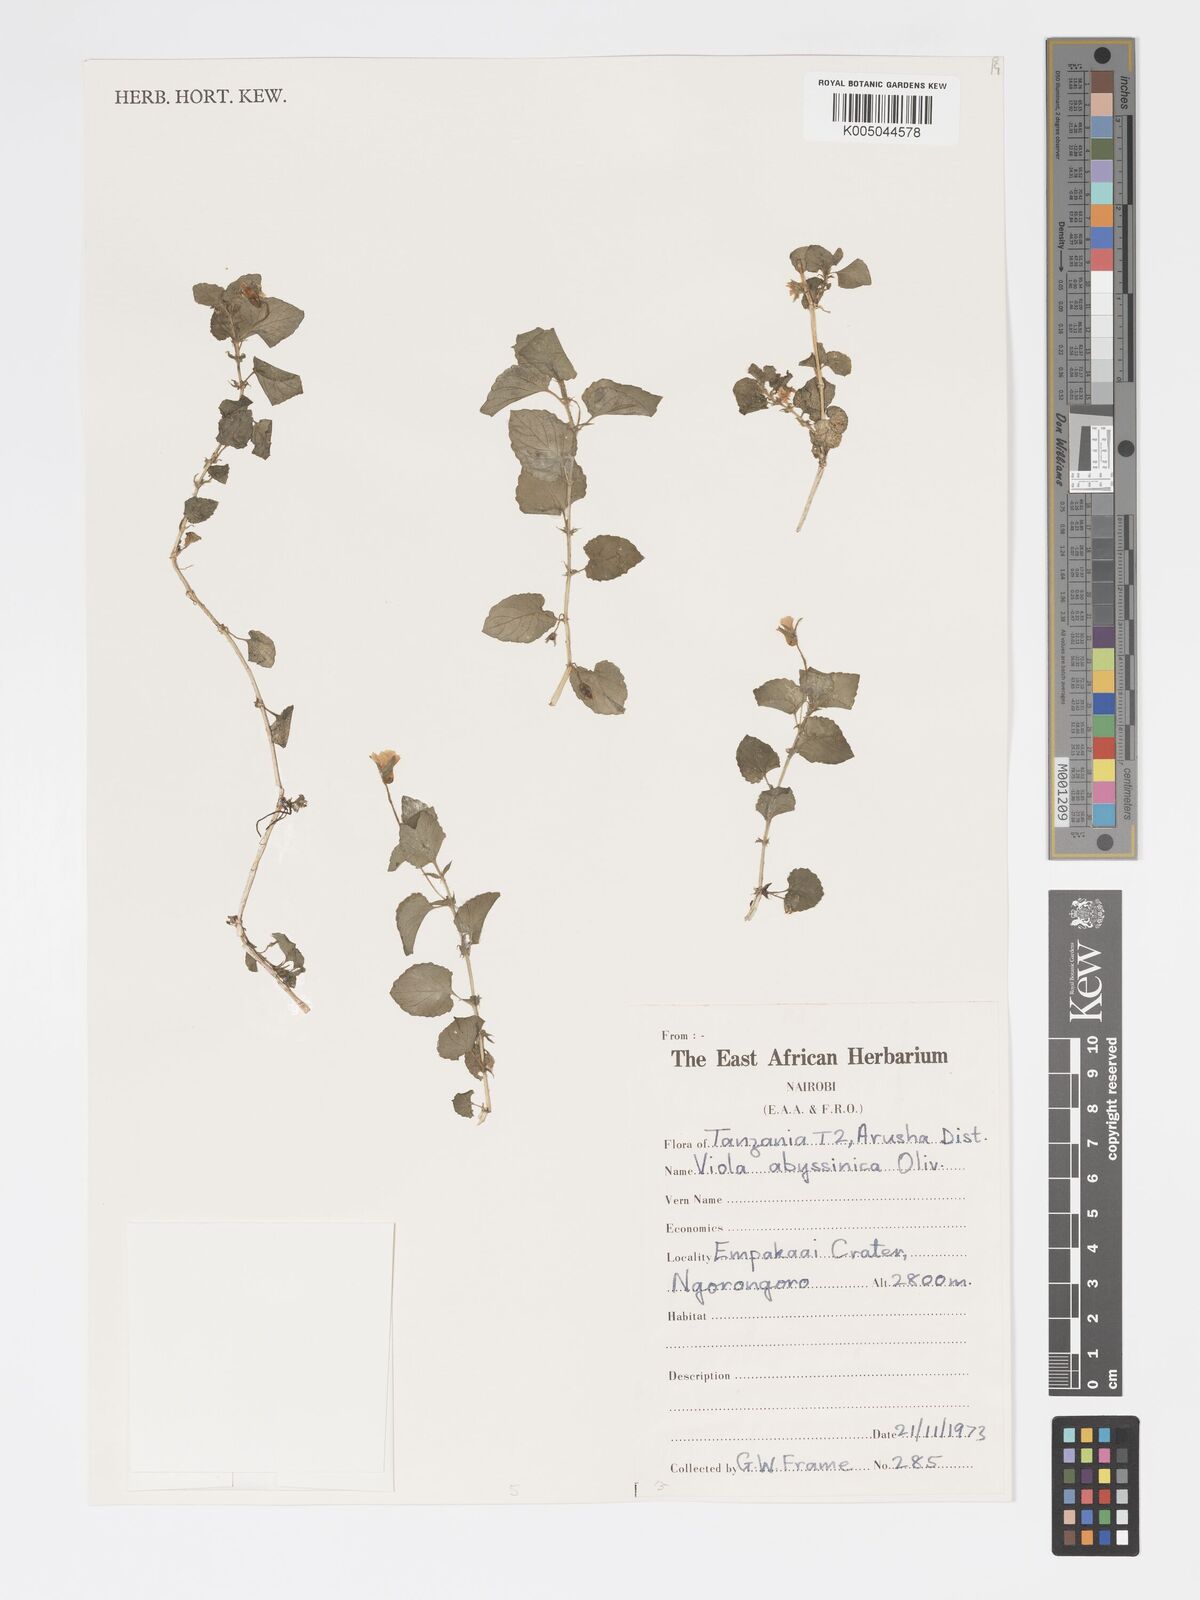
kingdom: Plantae
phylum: Tracheophyta
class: Magnoliopsida
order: Malpighiales
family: Violaceae
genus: Viola
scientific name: Viola abyssinica
